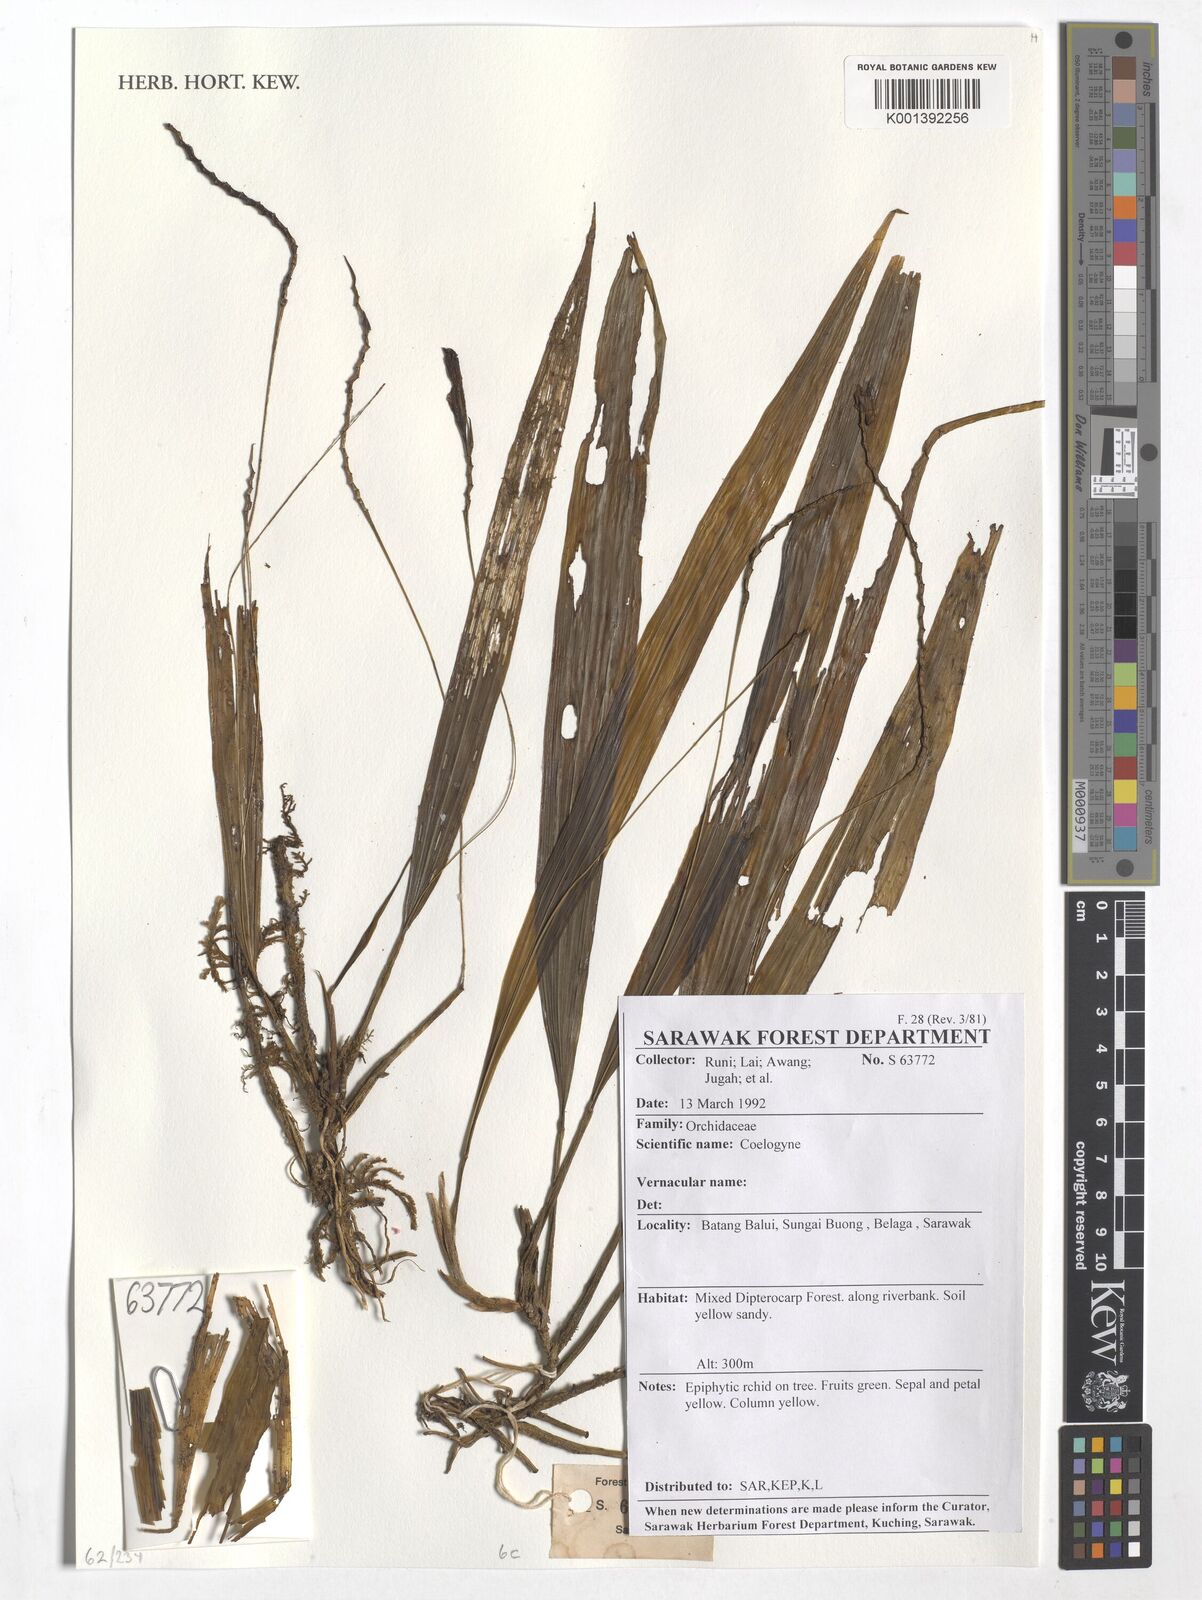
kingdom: Plantae
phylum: Tracheophyta
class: Liliopsida
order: Asparagales
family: Orchidaceae
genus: Coelogyne
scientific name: Coelogyne
